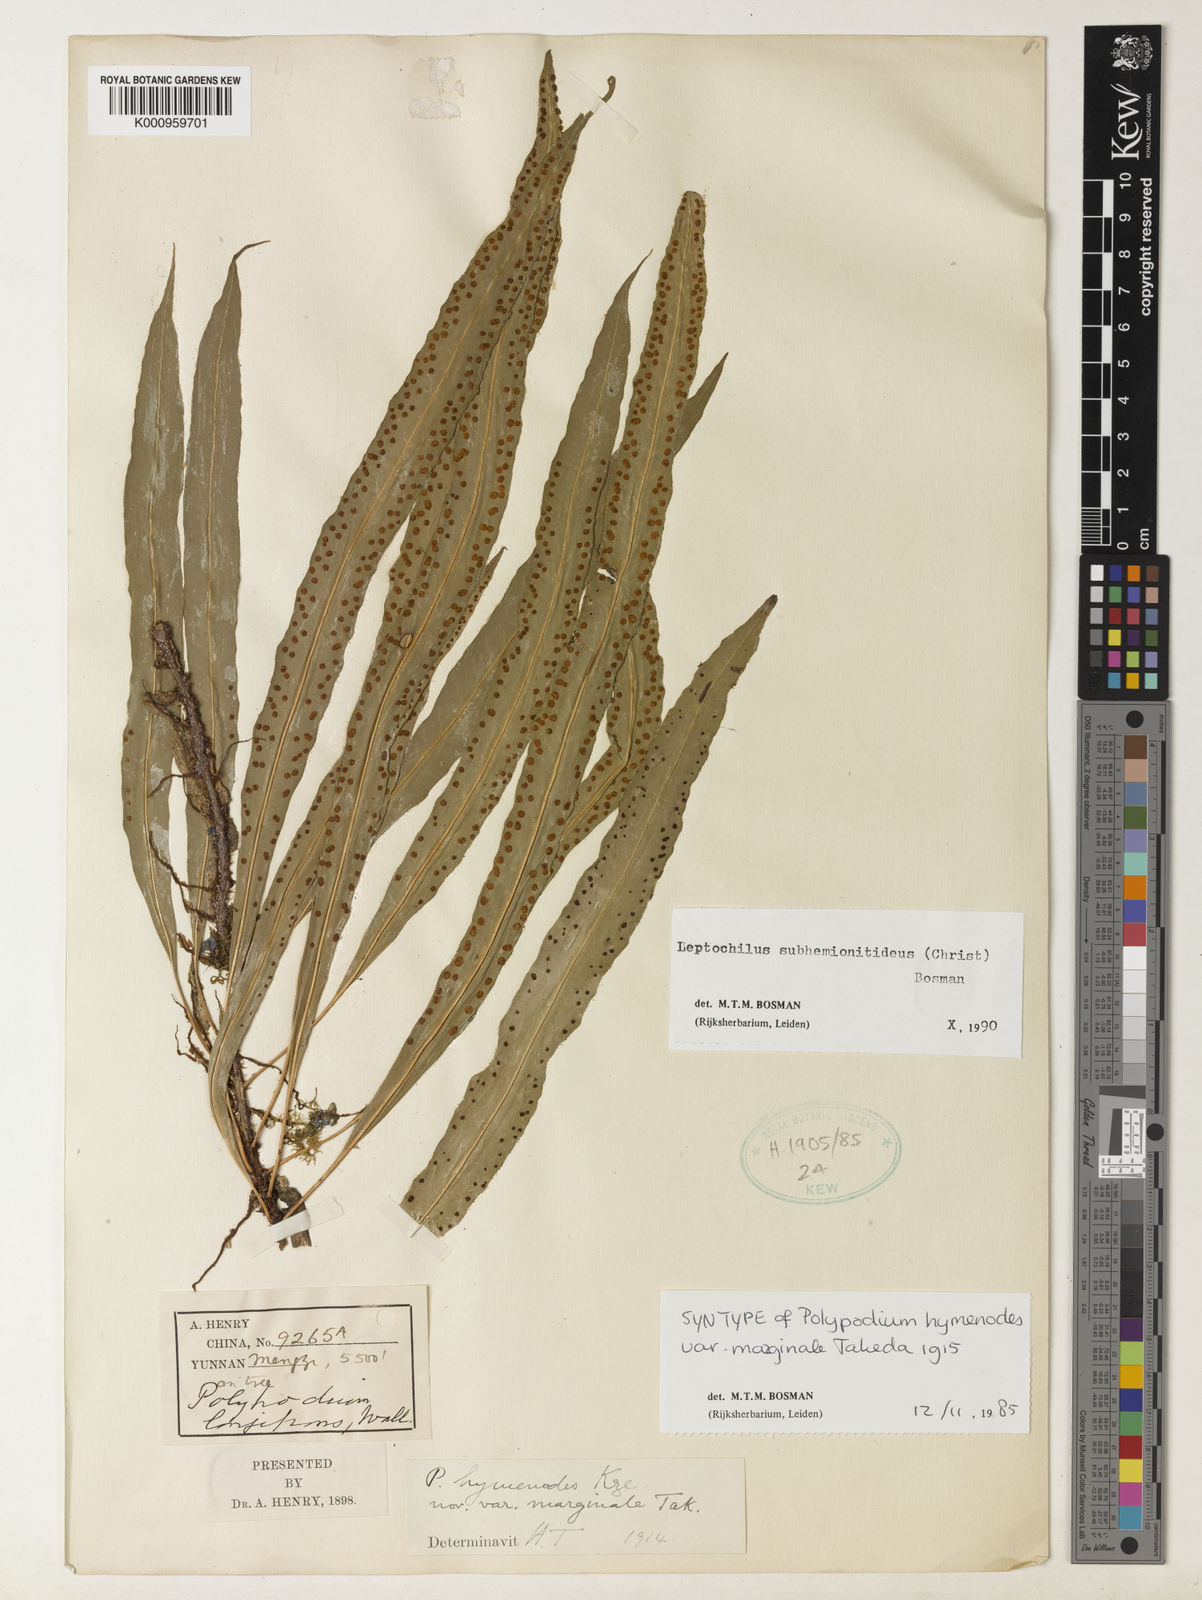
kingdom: Plantae
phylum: Tracheophyta
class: Polypodiopsida
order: Polypodiales
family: Polypodiaceae
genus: Bosmania
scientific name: Bosmania membranacea
